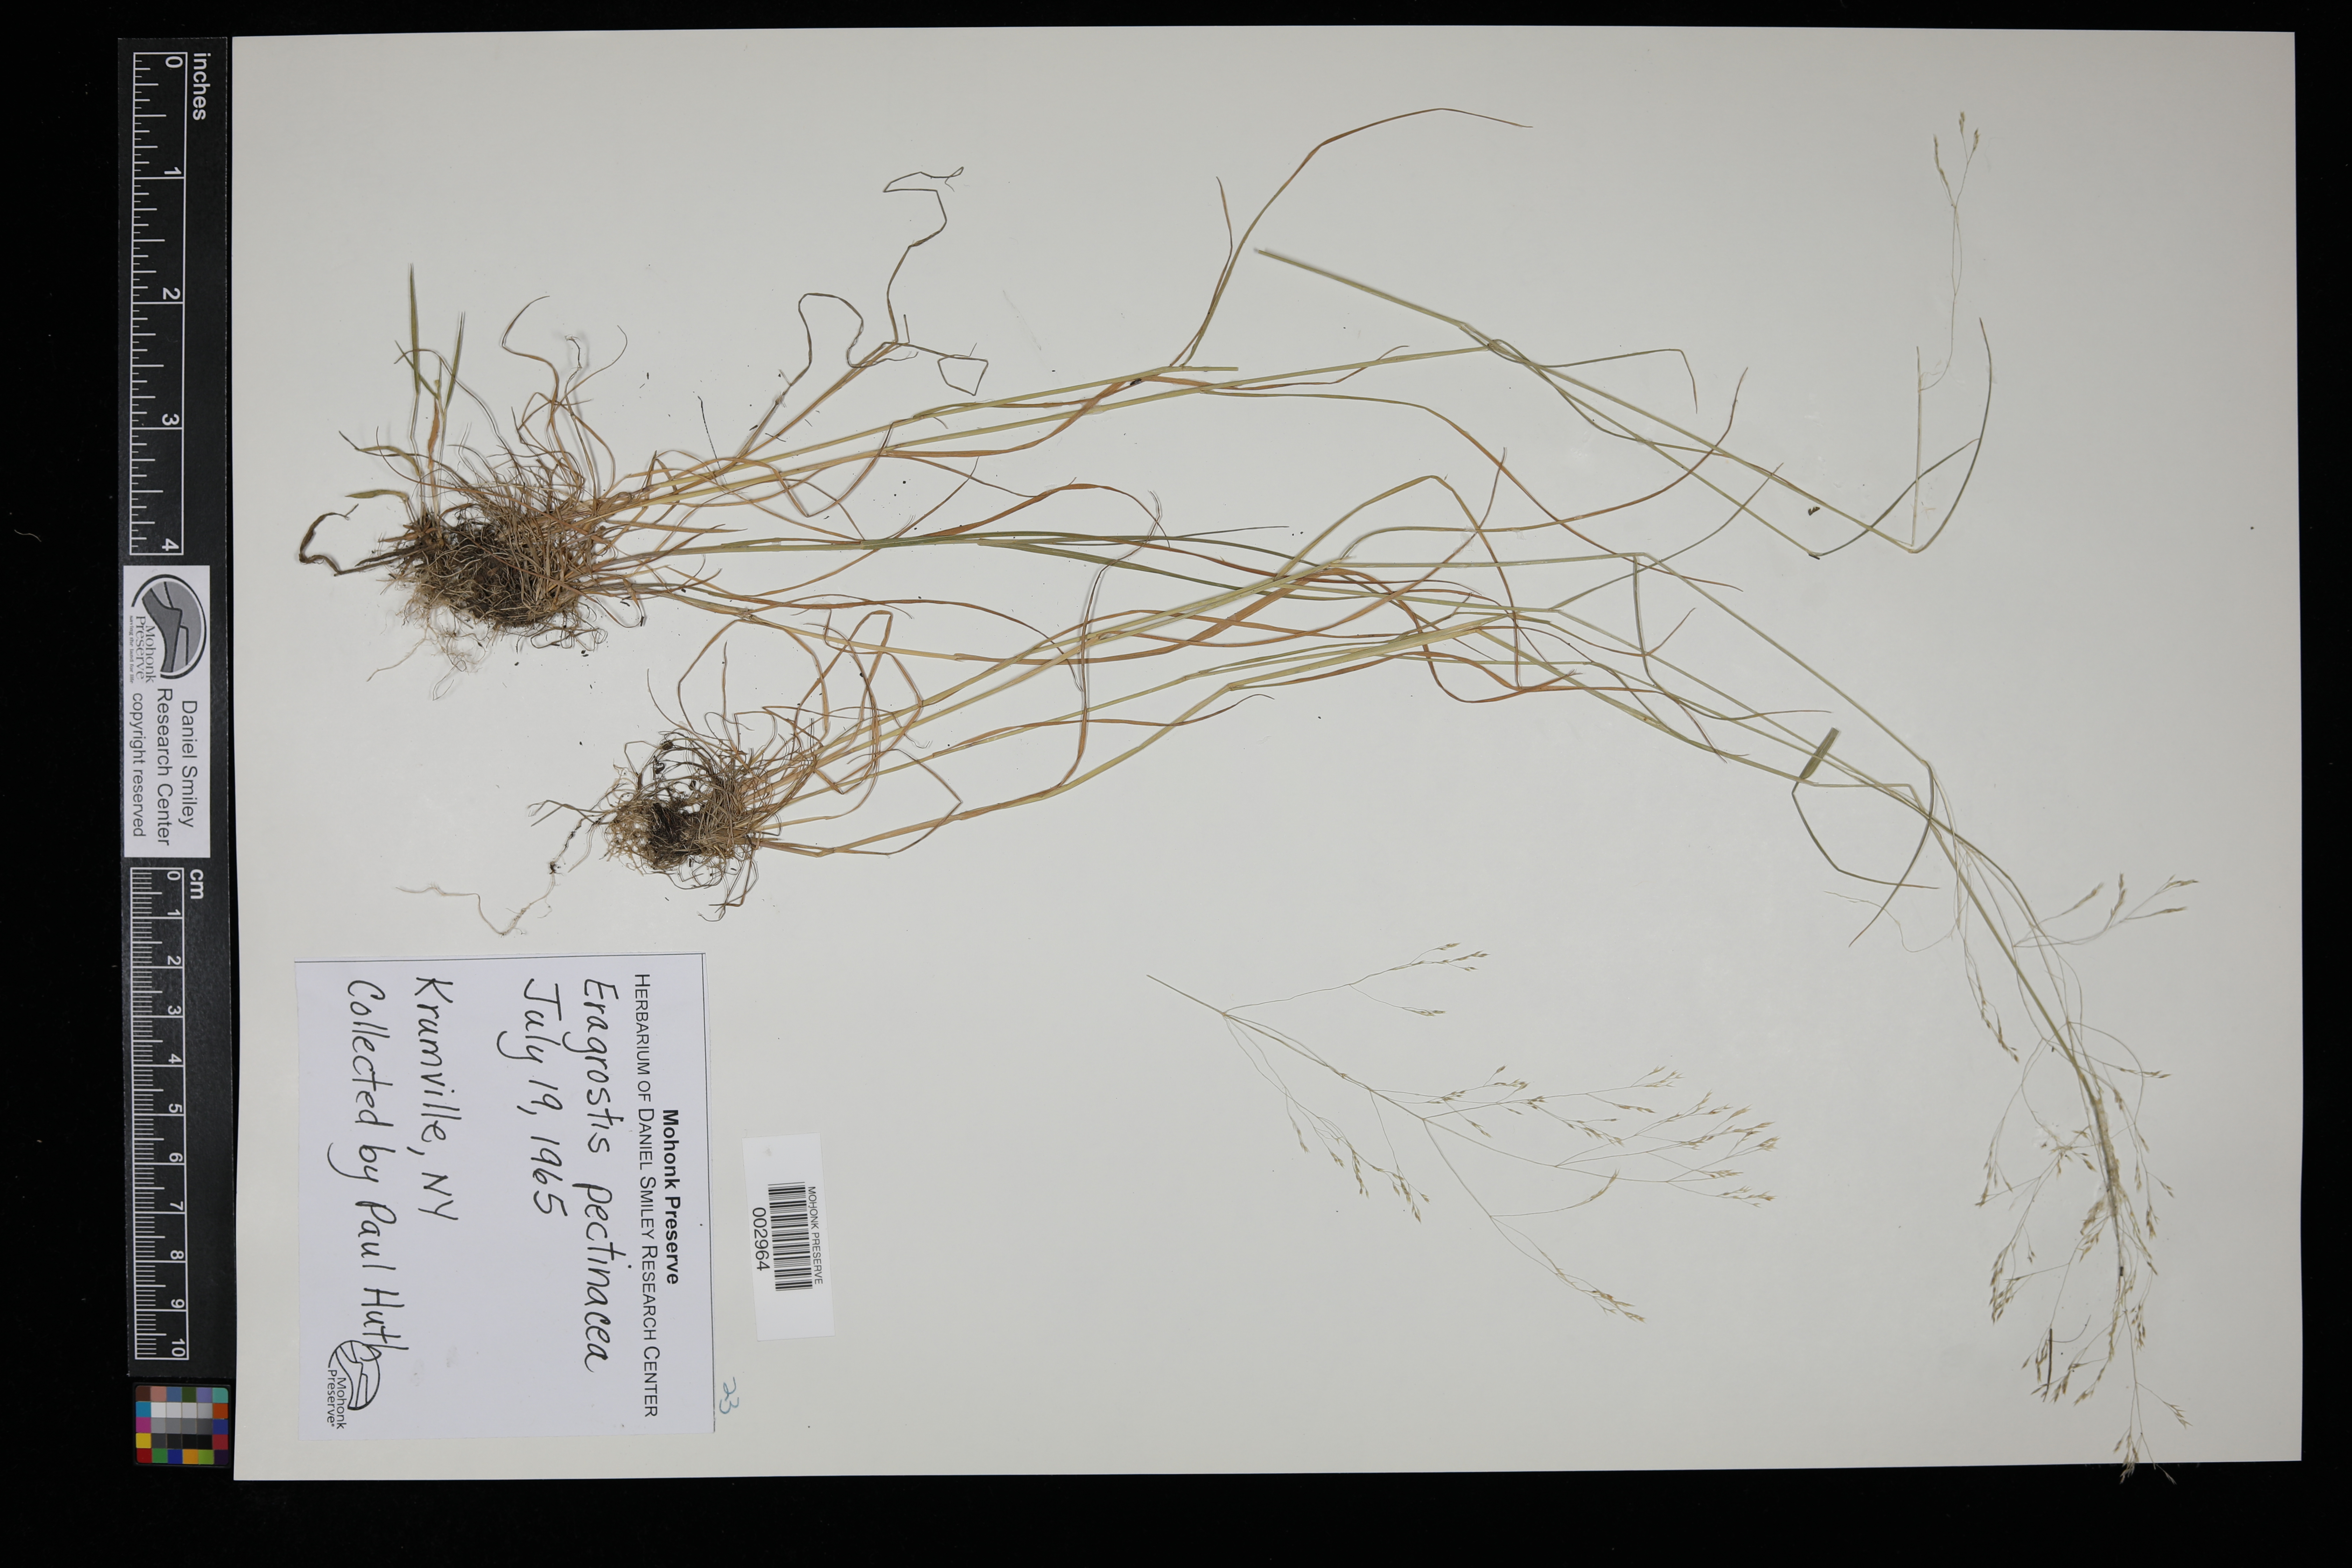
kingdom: Plantae
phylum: Tracheophyta
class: Liliopsida
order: Poales
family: Poaceae
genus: Eragrostis
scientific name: Eragrostis pectinacea
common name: Tufted lovegrass
